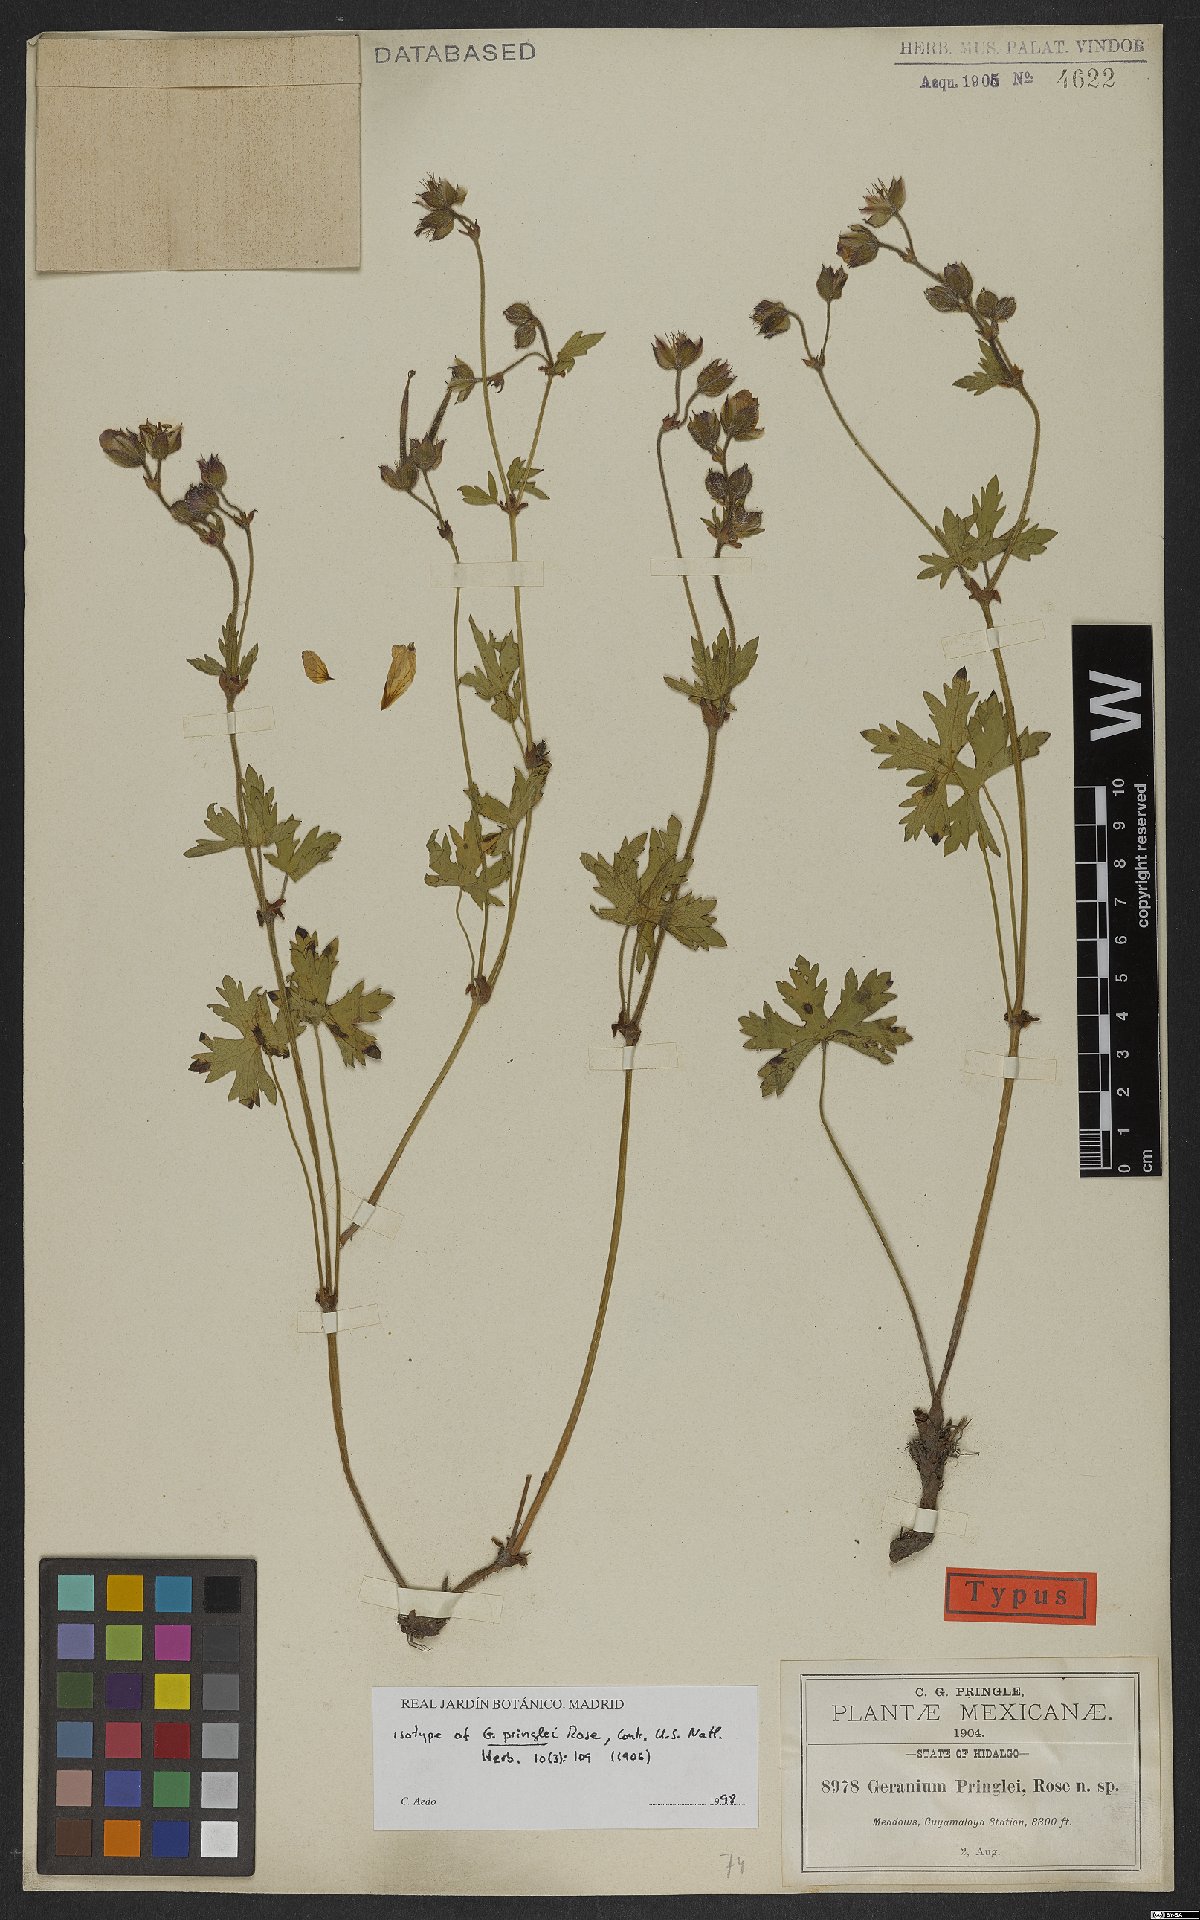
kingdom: Plantae
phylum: Tracheophyta
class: Magnoliopsida
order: Geraniales
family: Geraniaceae
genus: Geranium
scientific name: Geranium pringlei
